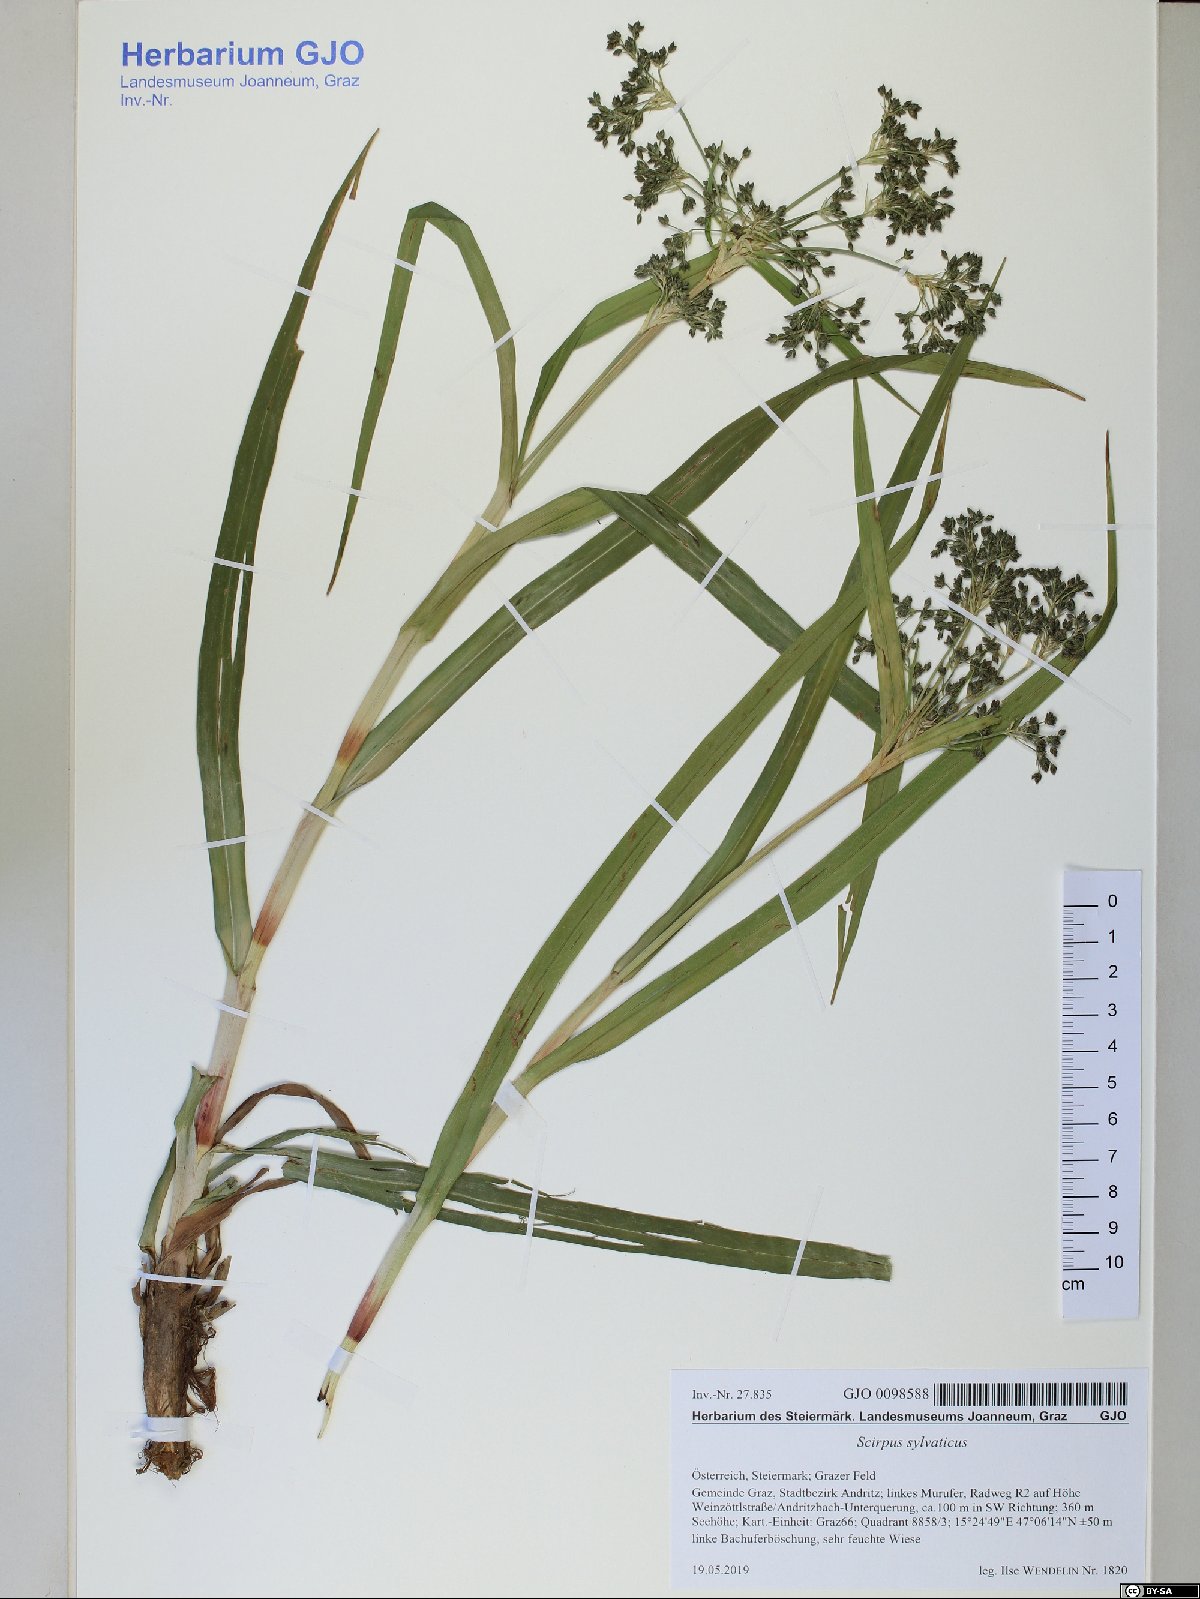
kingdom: Plantae
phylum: Tracheophyta
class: Liliopsida
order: Poales
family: Cyperaceae
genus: Scirpus
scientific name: Scirpus sylvaticus
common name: Wood club-rush
